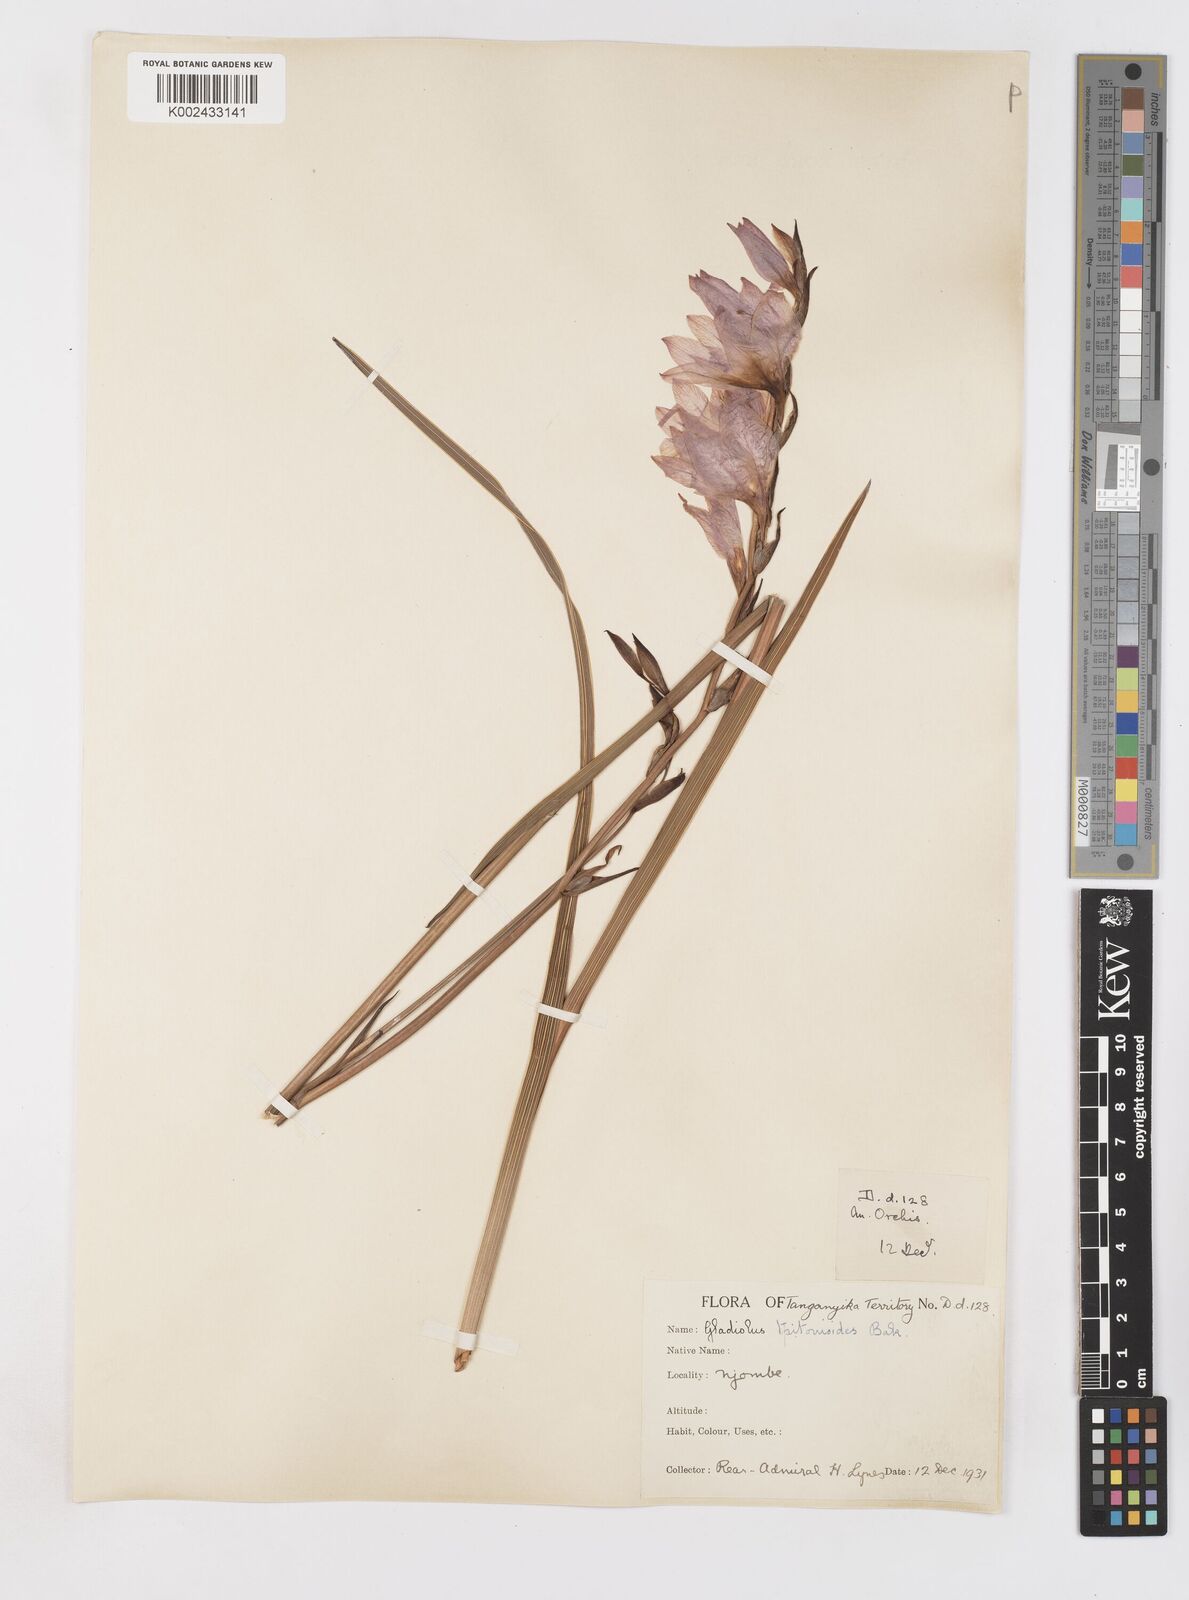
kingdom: Plantae
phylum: Tracheophyta
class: Liliopsida
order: Asparagales
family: Iridaceae
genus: Gladiolus
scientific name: Gladiolus laxiflorus
